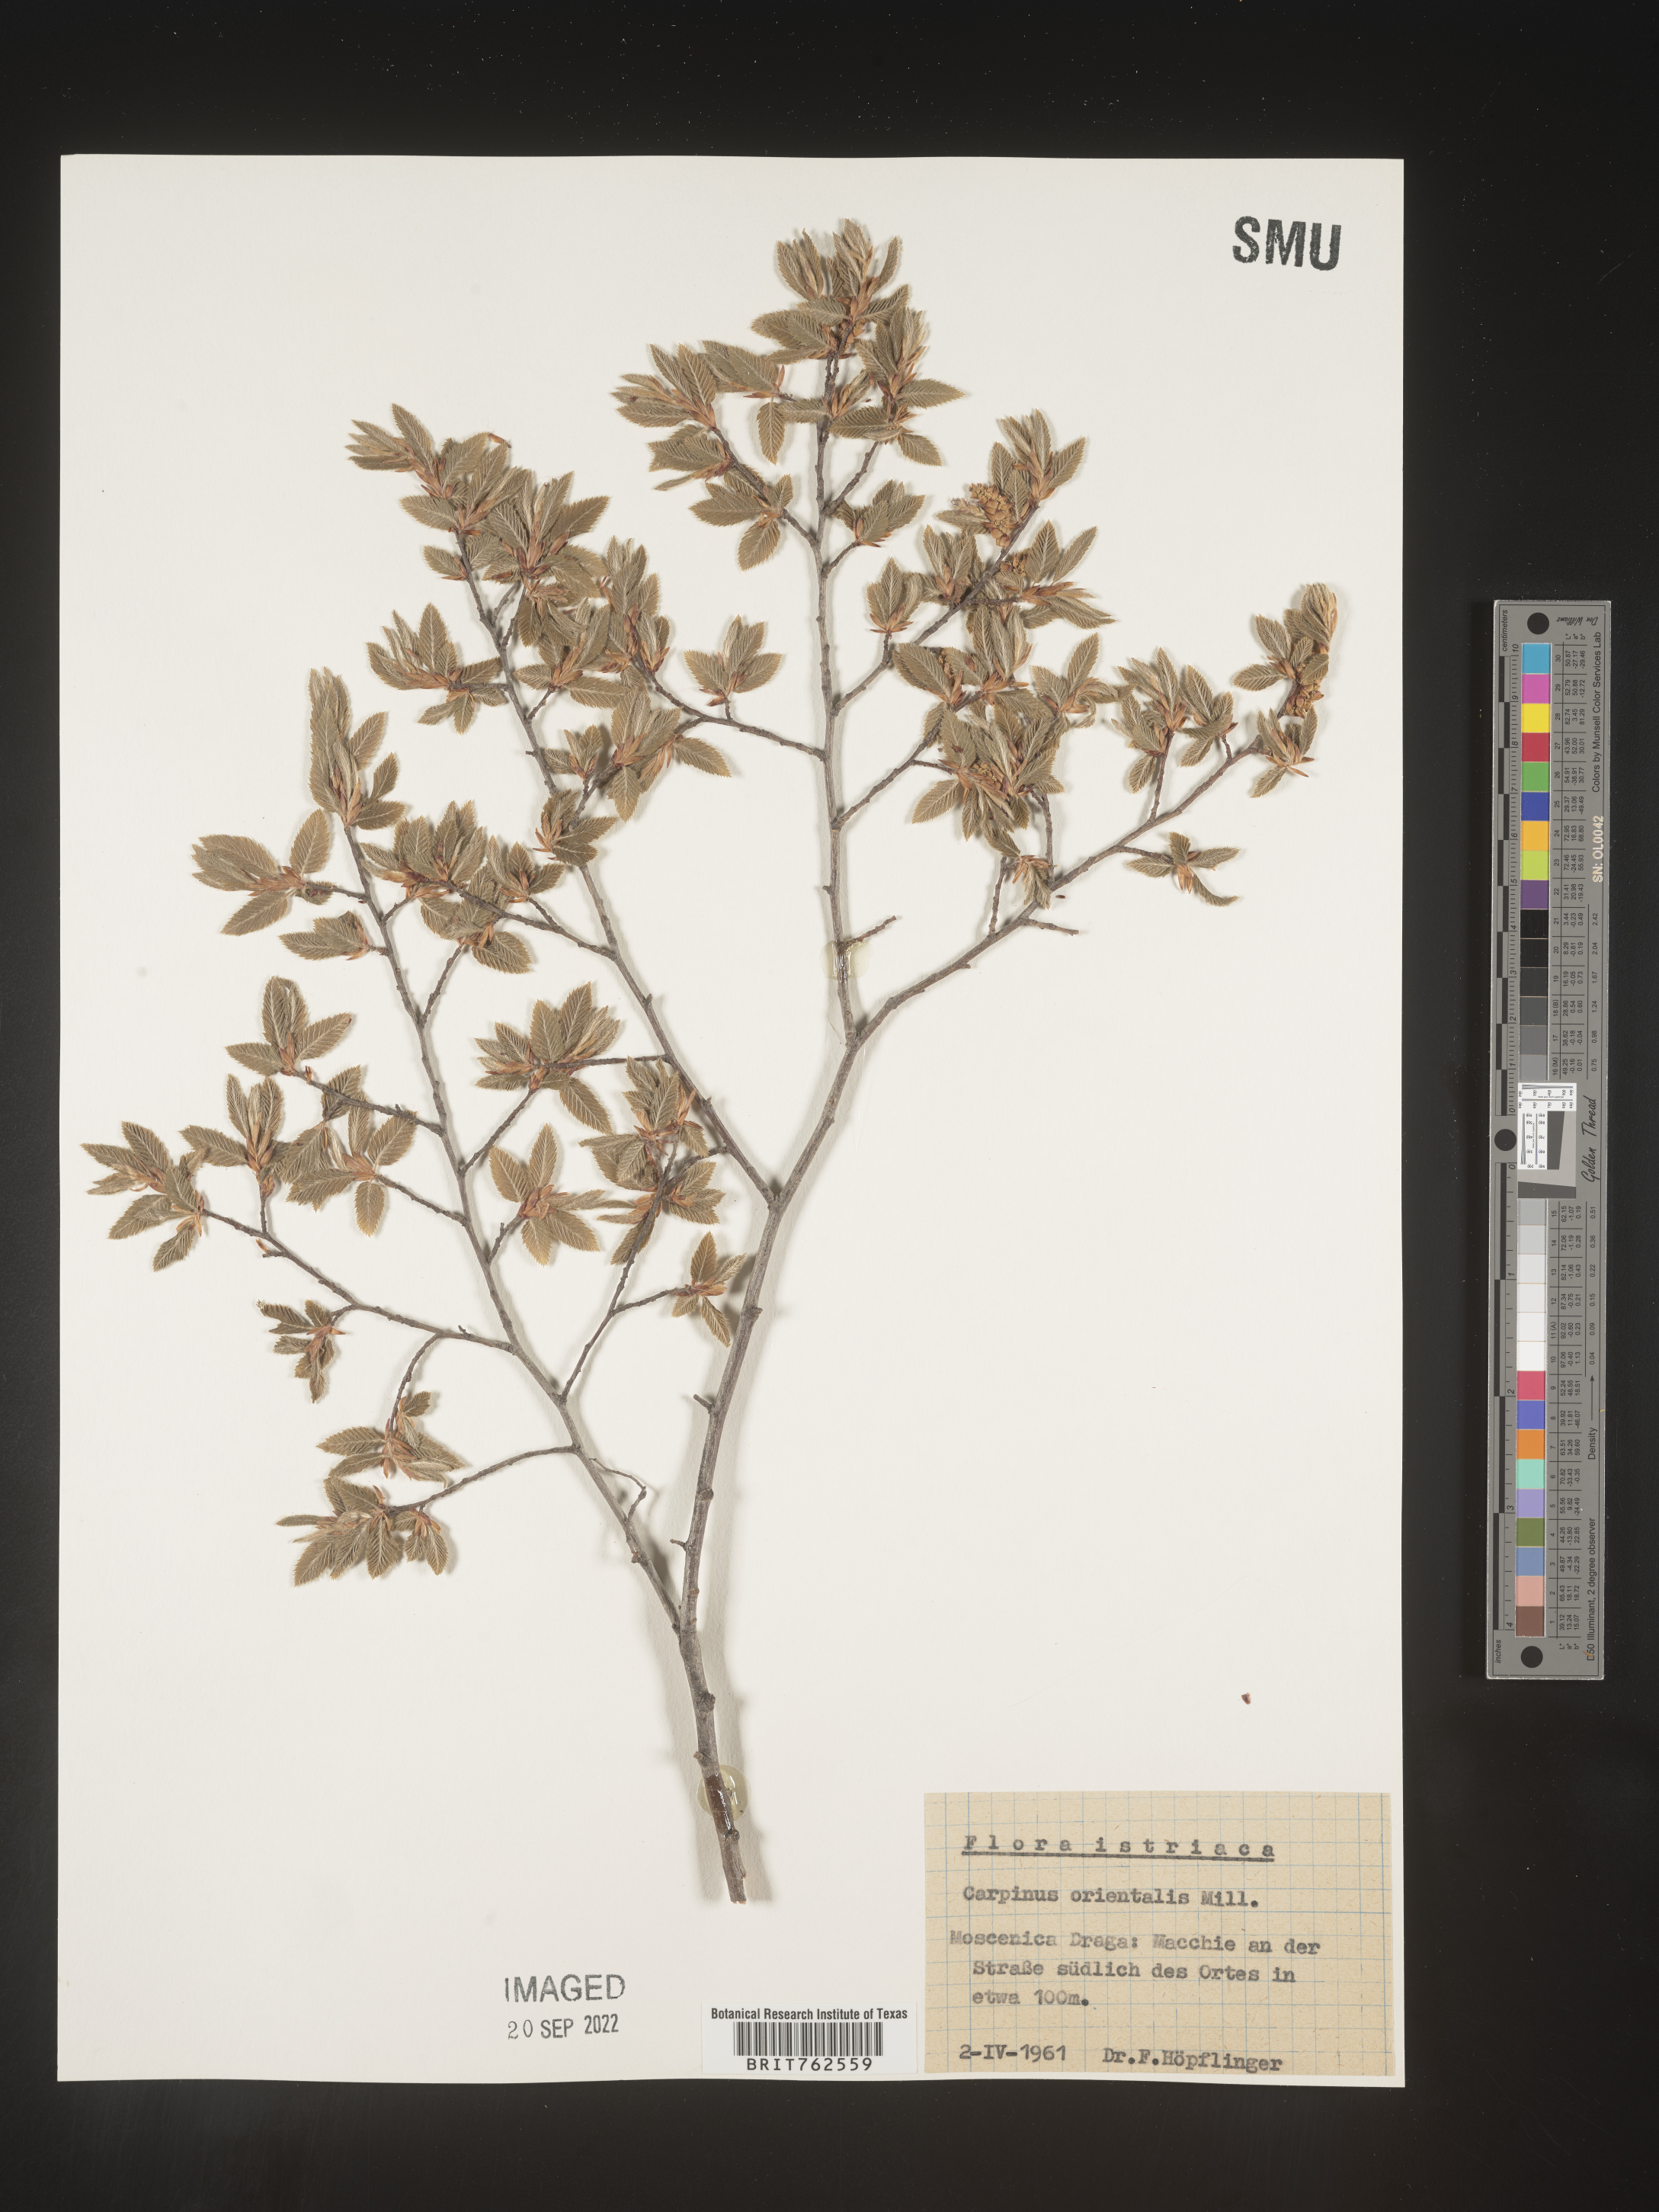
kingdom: Plantae
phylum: Tracheophyta
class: Magnoliopsida
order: Fagales
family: Betulaceae
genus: Carpinus
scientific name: Carpinus
